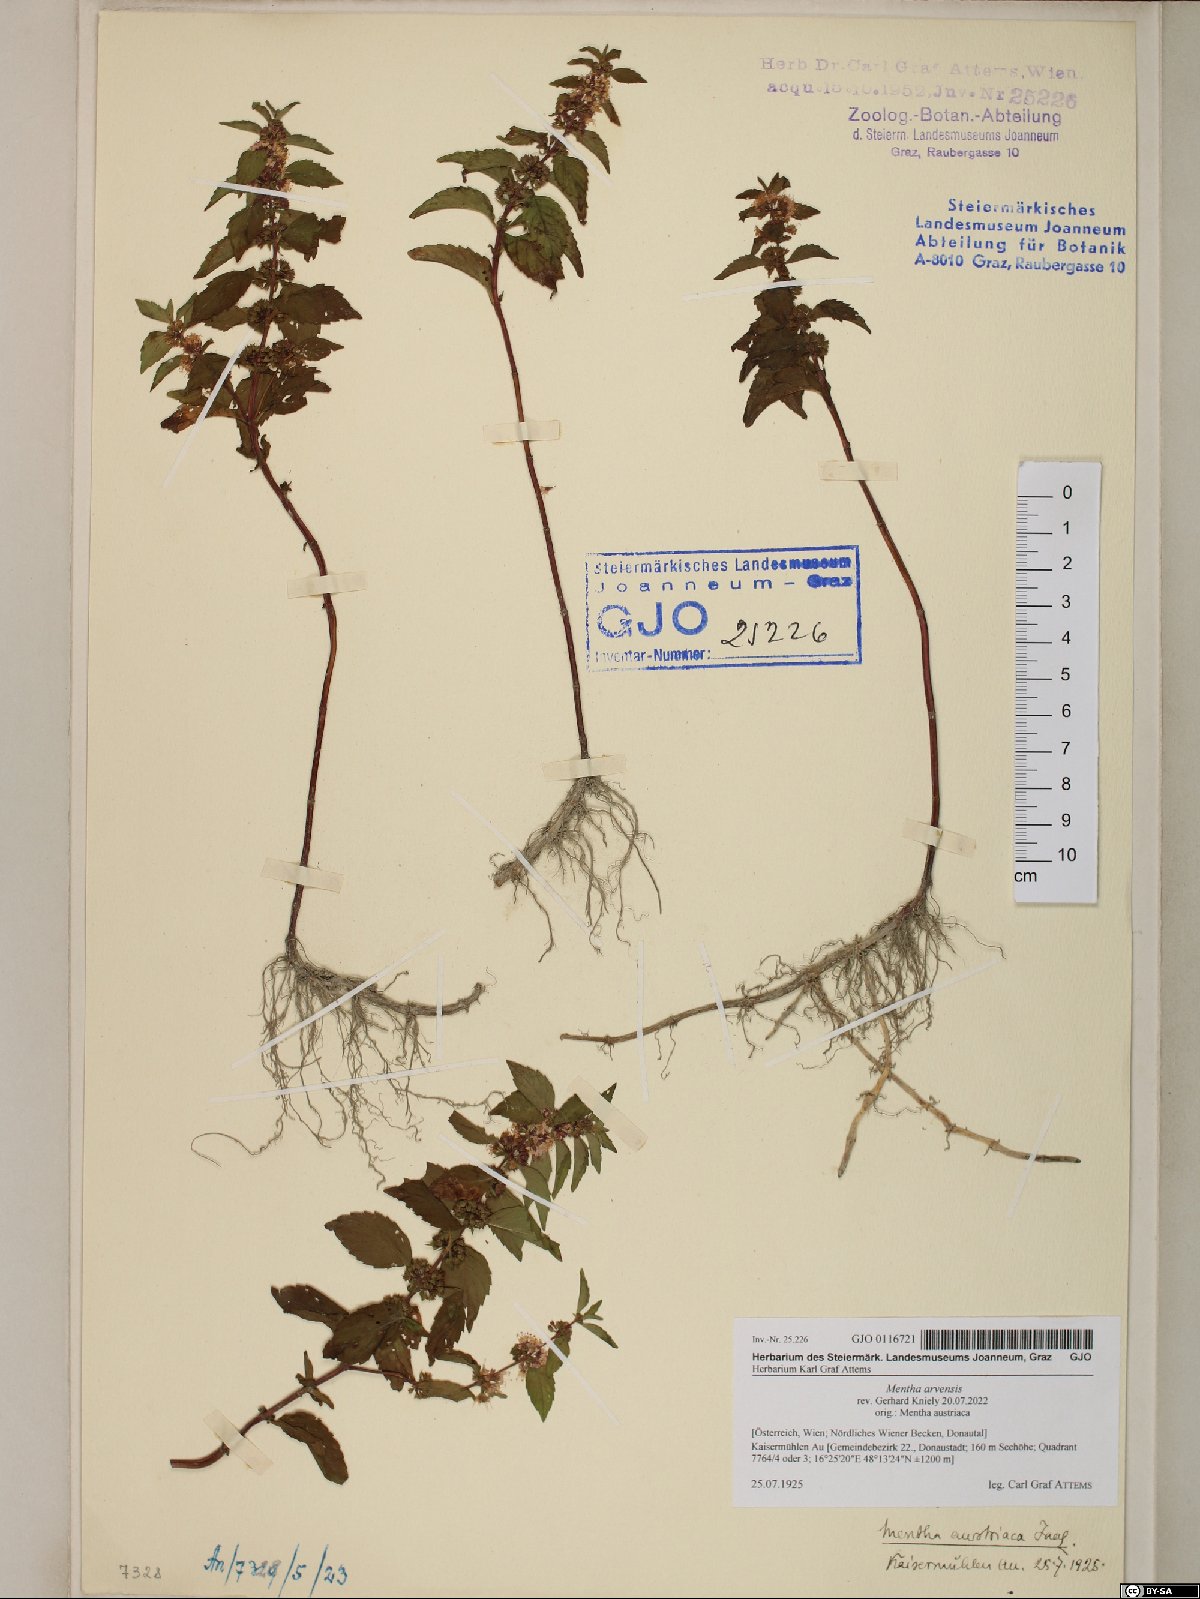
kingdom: Plantae
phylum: Tracheophyta
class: Magnoliopsida
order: Lamiales
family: Lamiaceae
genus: Mentha
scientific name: Mentha arvensis
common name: Corn mint
